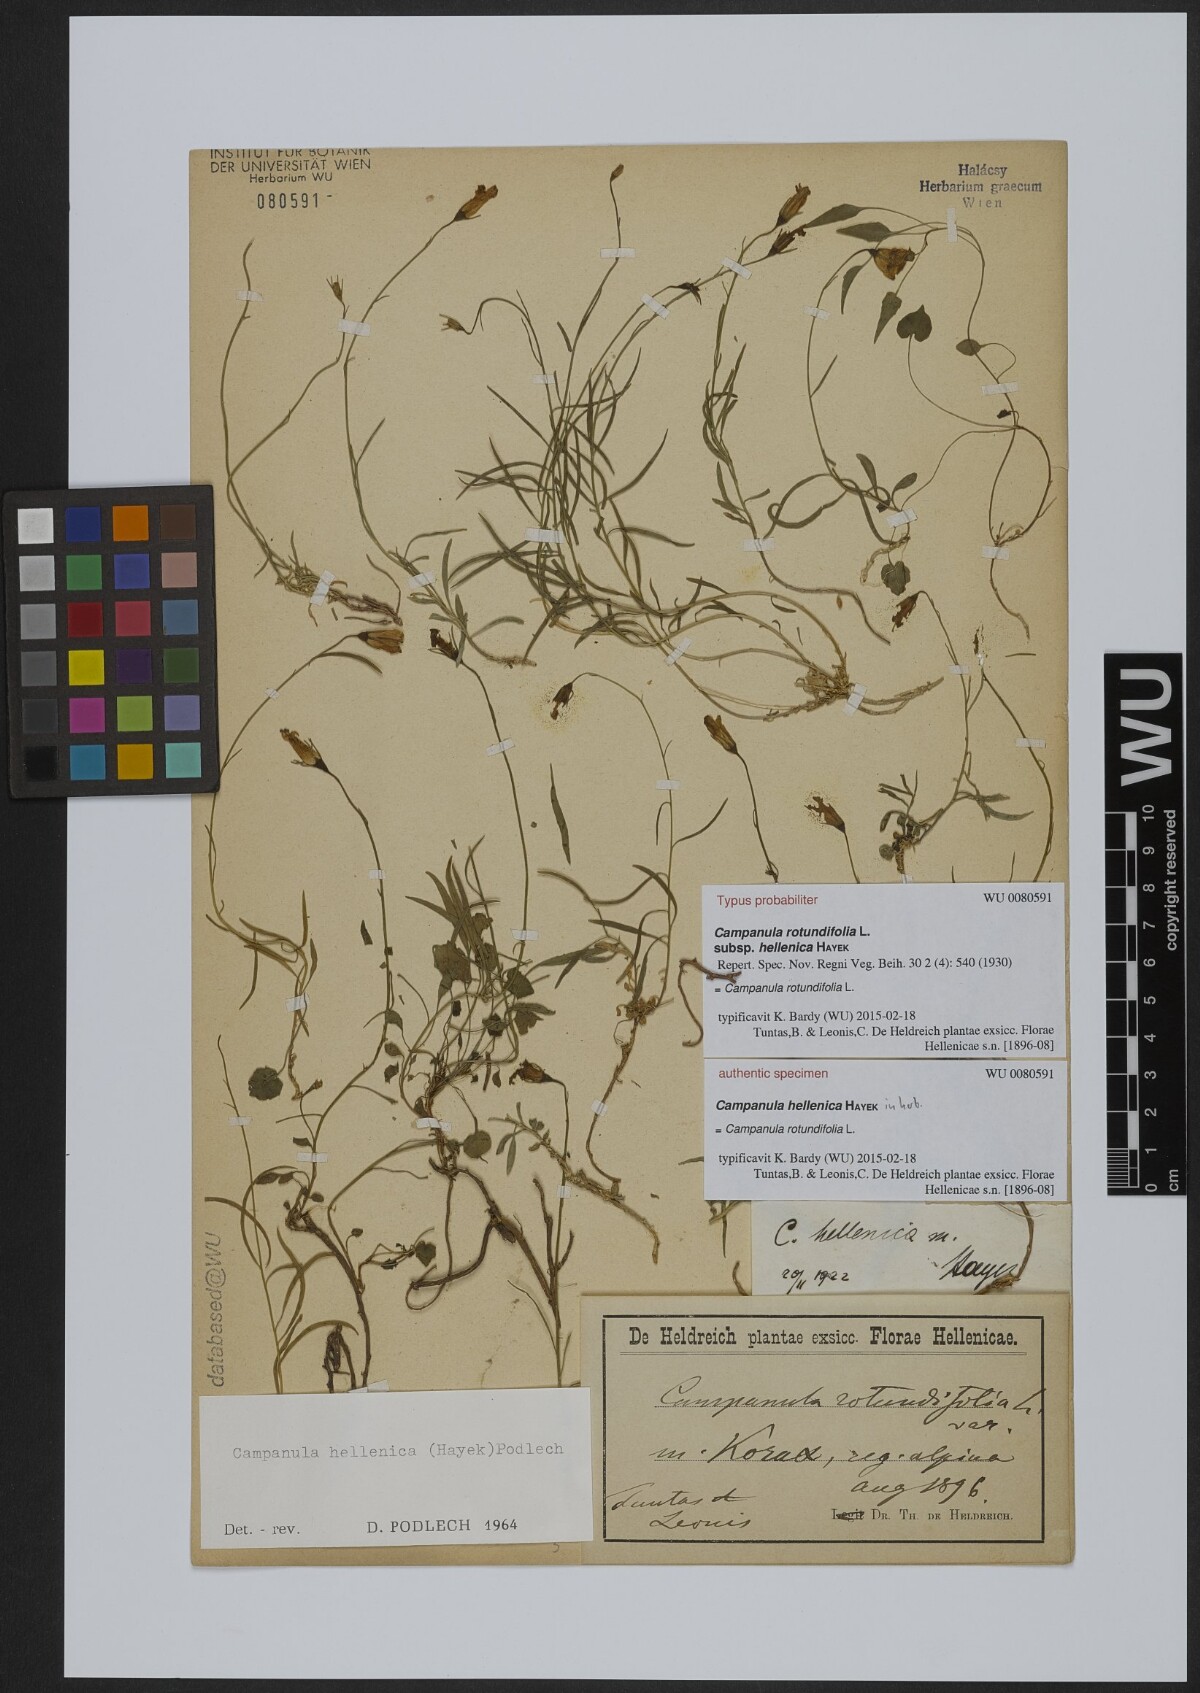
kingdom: Plantae
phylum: Tracheophyta
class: Magnoliopsida
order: Asterales
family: Campanulaceae
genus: Campanula
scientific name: Campanula albanica
